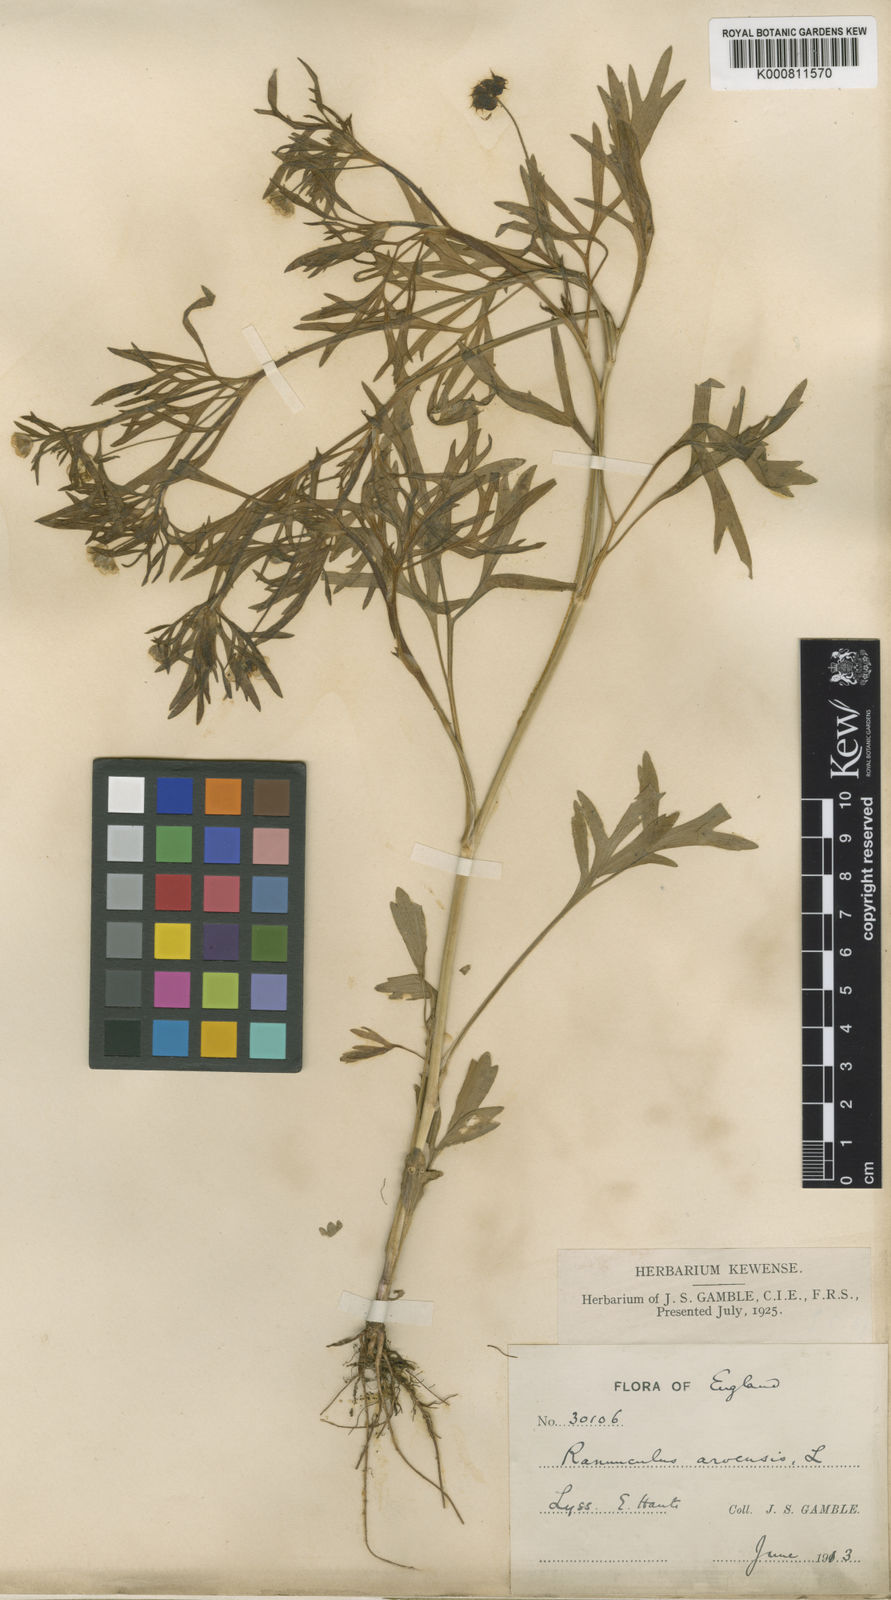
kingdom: Plantae
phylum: Tracheophyta
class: Magnoliopsida
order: Ranunculales
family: Ranunculaceae
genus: Ranunculus
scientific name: Ranunculus arvensis
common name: Corn buttercup
